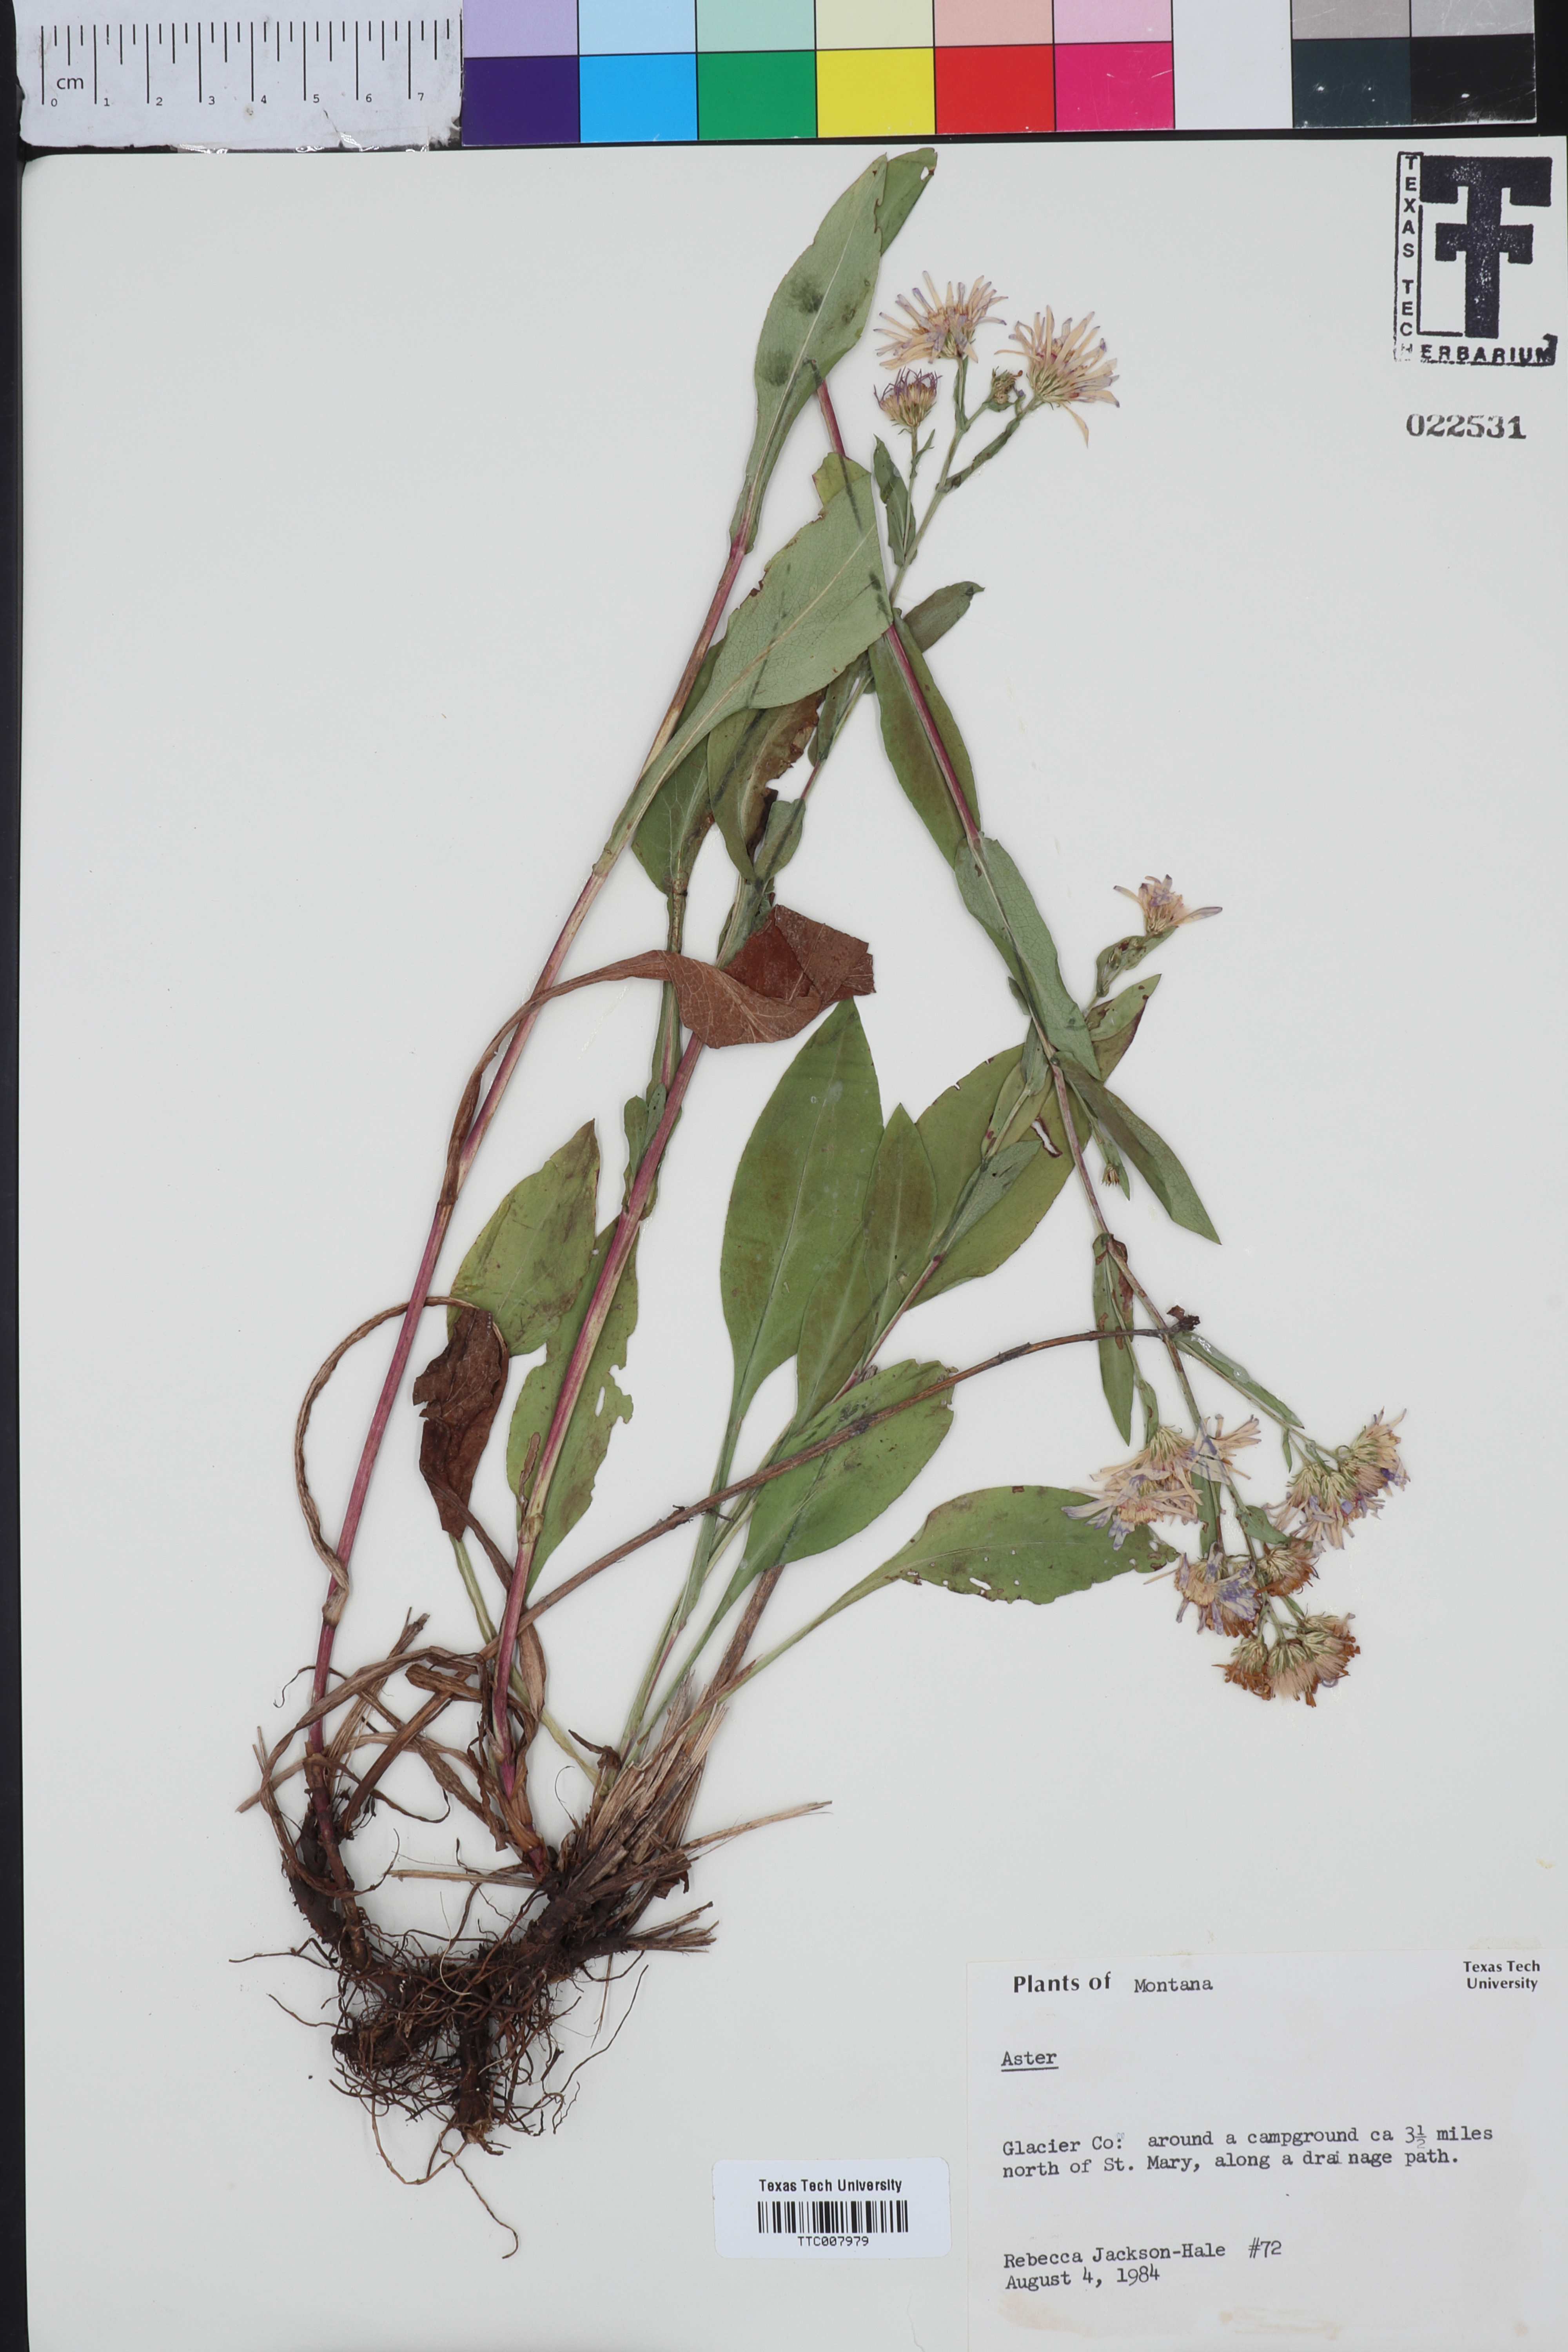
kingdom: Plantae
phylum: Tracheophyta
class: Magnoliopsida
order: Asterales
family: Asteraceae
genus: Aster
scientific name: Aster
